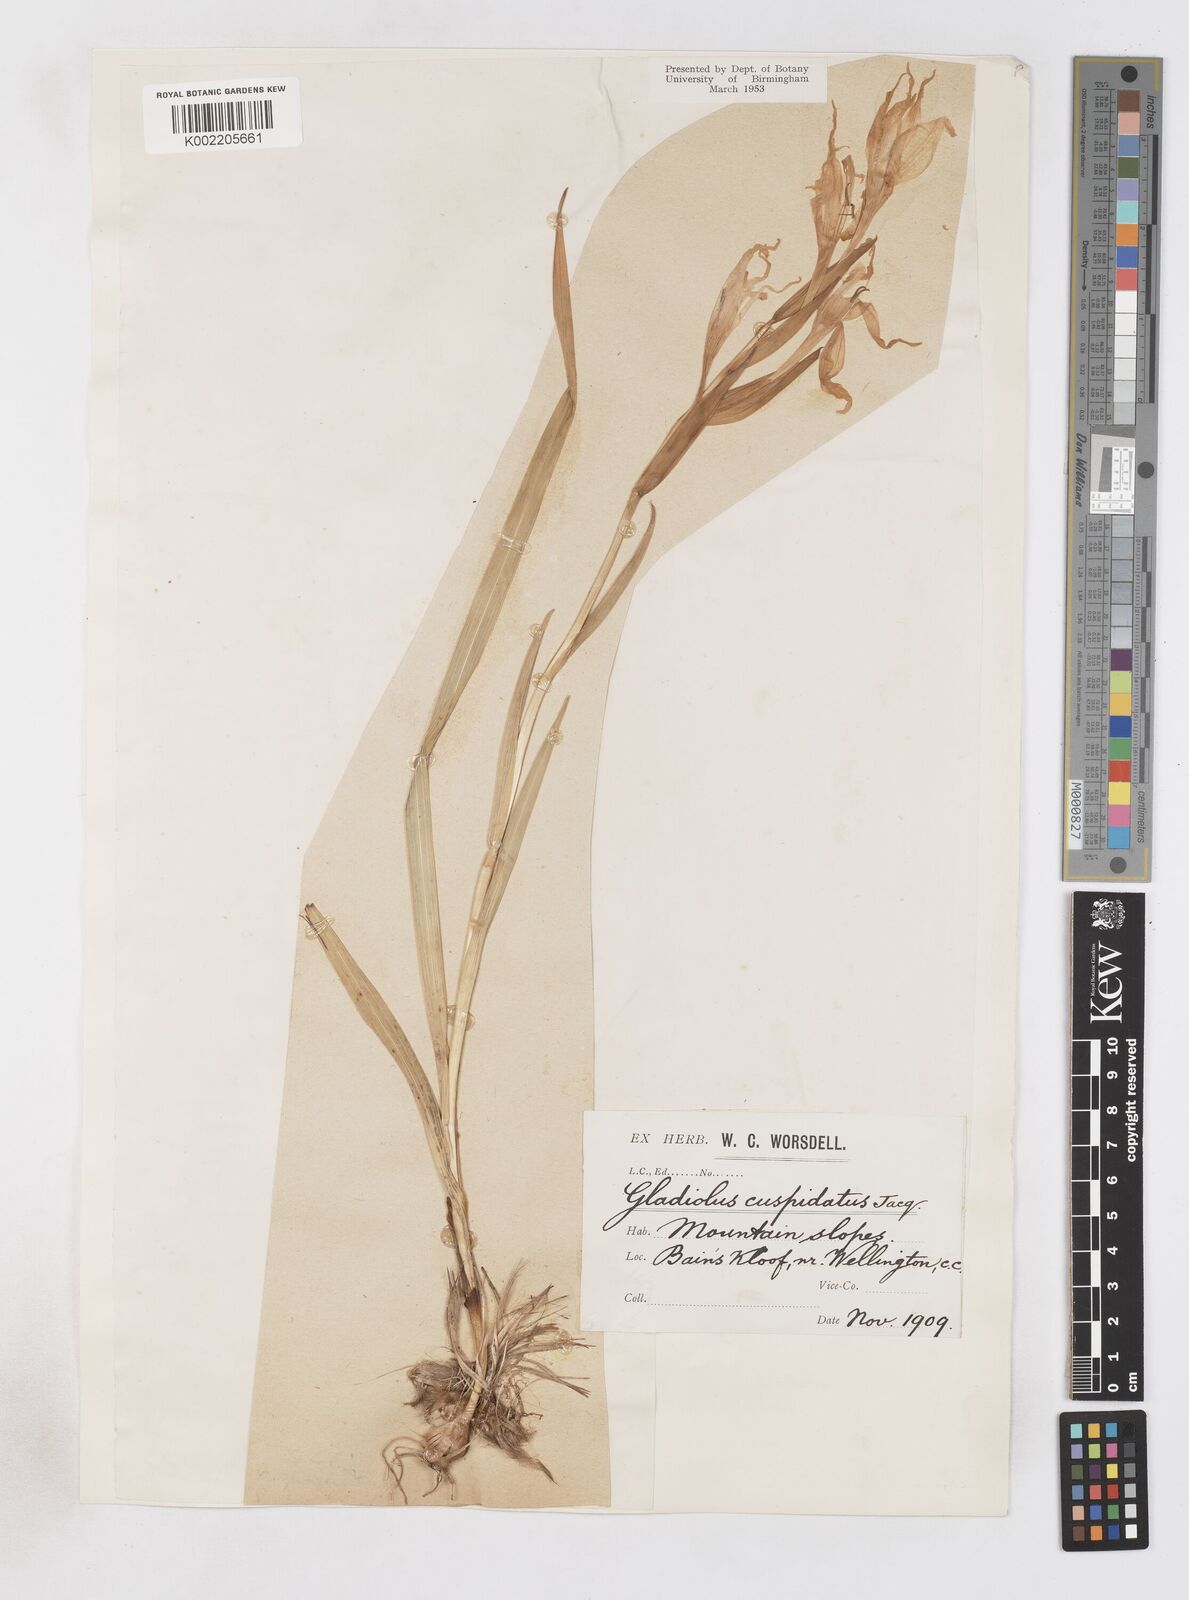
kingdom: Plantae
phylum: Tracheophyta
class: Liliopsida
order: Asparagales
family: Iridaceae
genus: Gladiolus
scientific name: Gladiolus undulatus
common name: Large painted-lady
